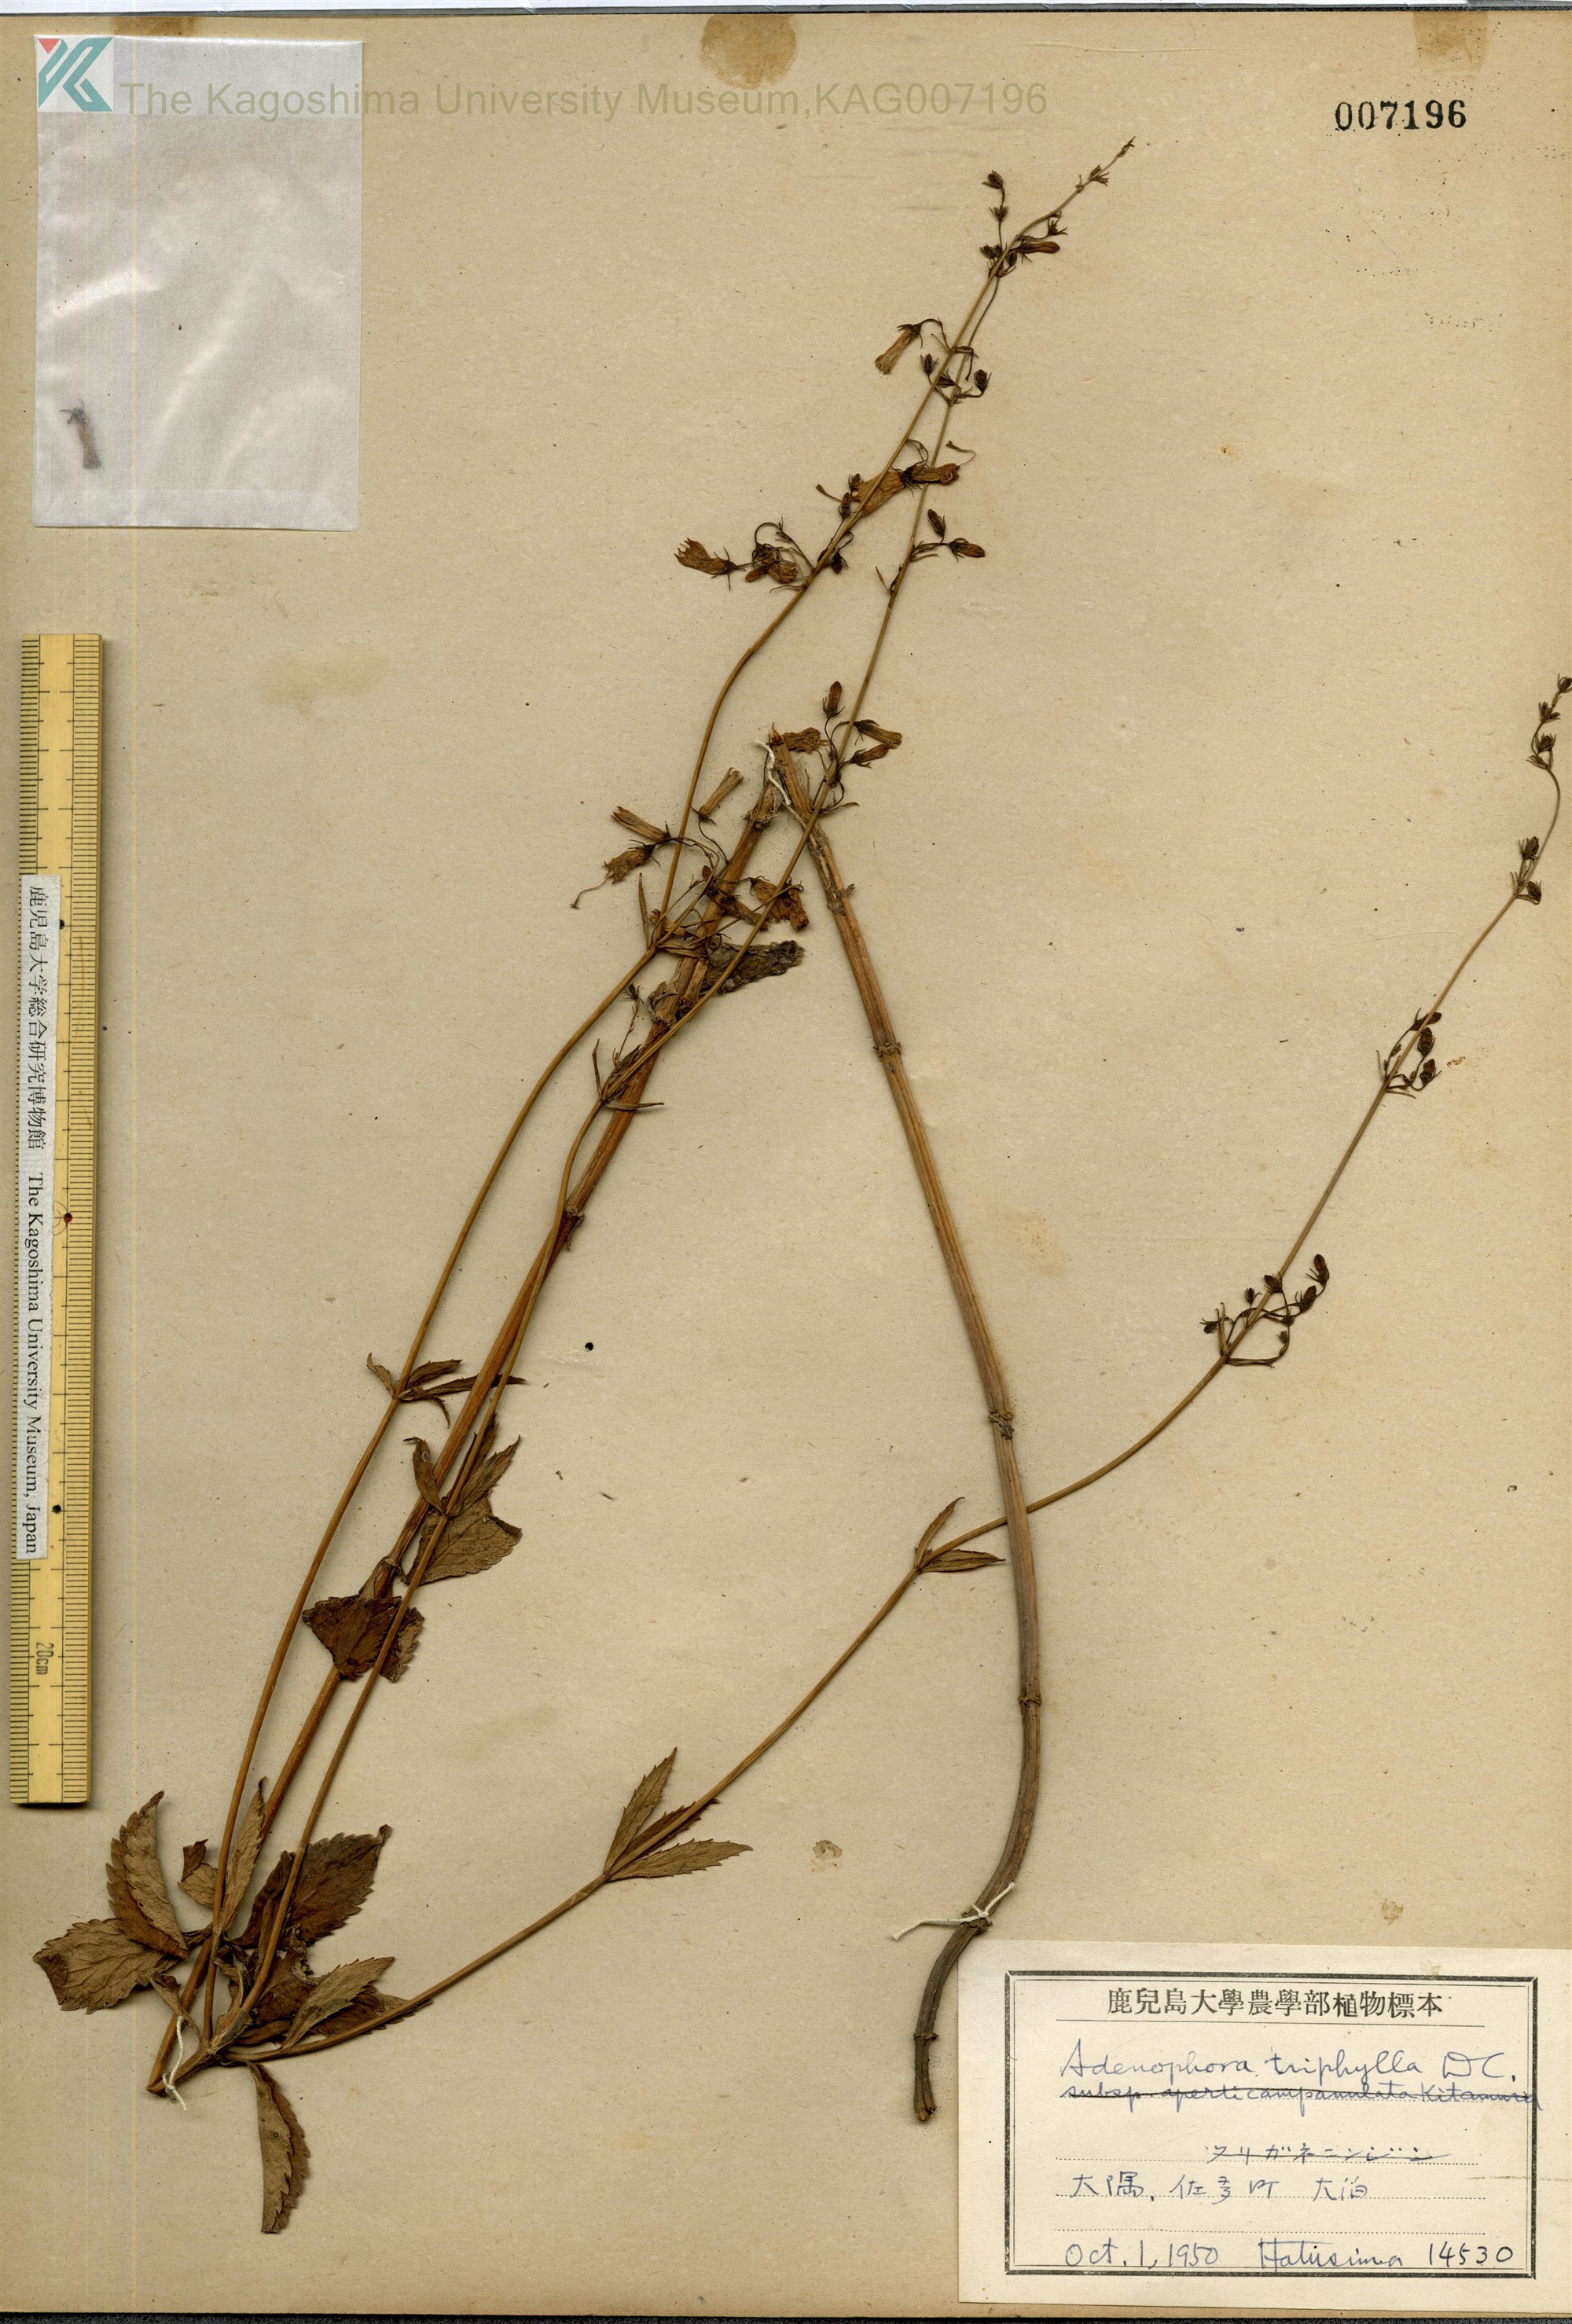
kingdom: Plantae
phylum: Tracheophyta
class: Magnoliopsida
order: Asterales
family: Campanulaceae
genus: Adenophora
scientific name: Adenophora triphylla
